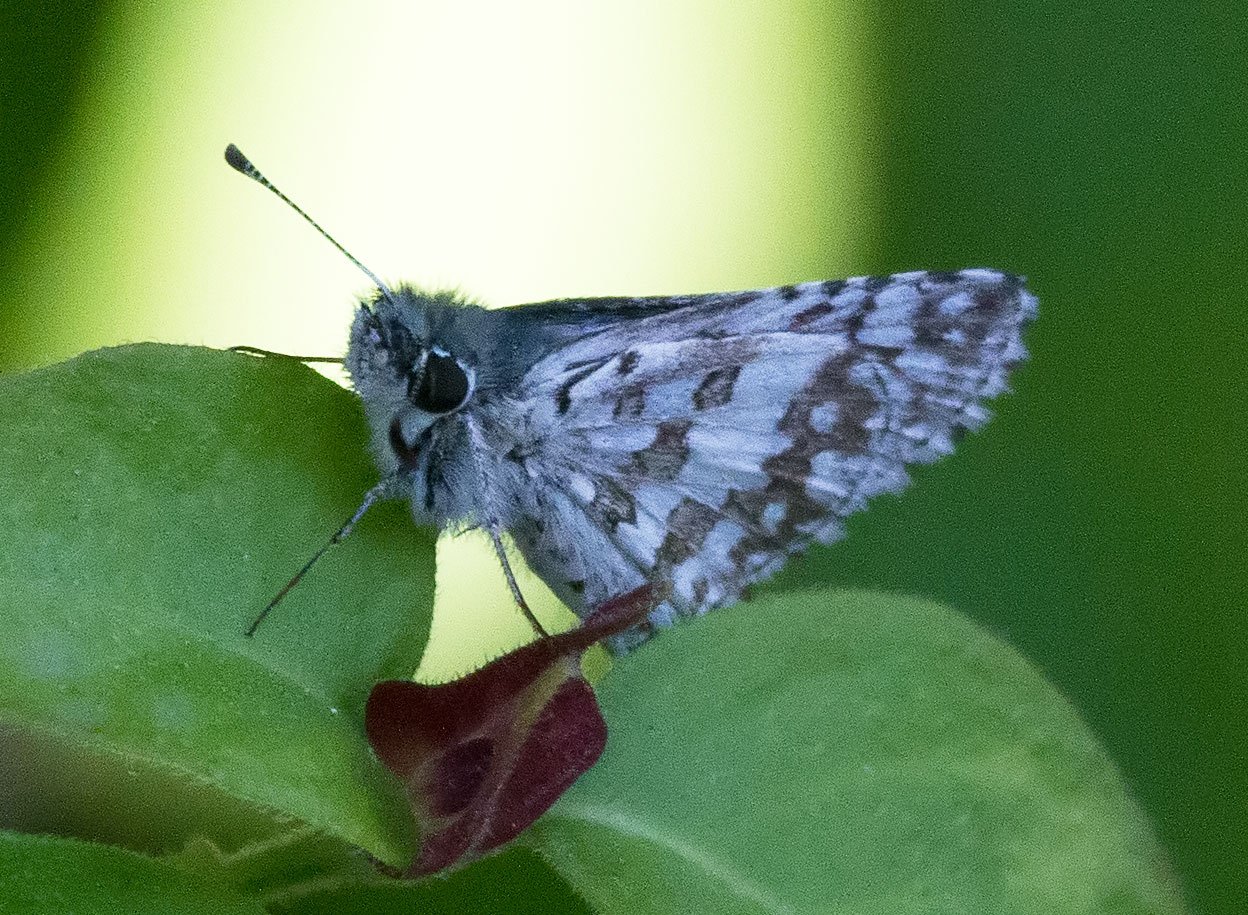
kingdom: Animalia
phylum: Arthropoda
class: Insecta
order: Lepidoptera
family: Hesperiidae
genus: Pyrgus
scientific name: Pyrgus communis
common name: Common Checkered-Skipper
